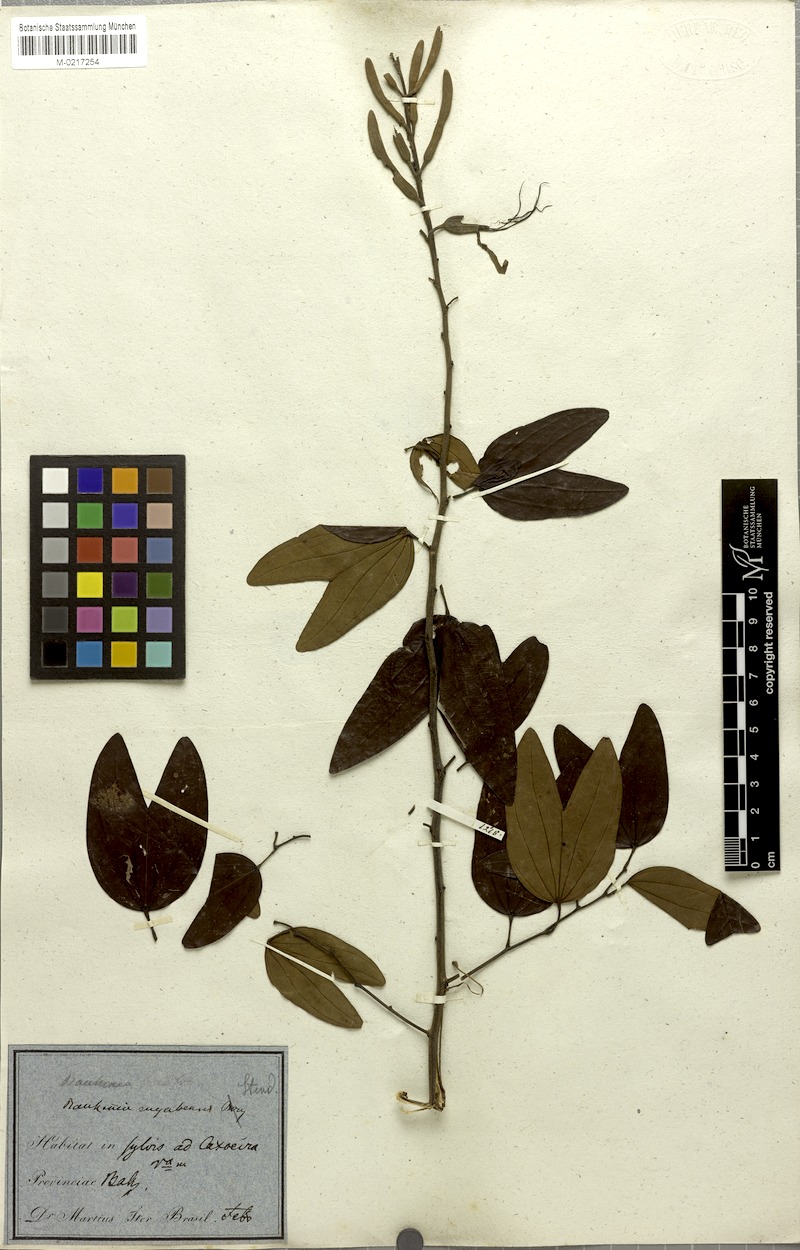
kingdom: Plantae
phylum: Tracheophyta
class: Magnoliopsida
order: Fabales
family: Fabaceae
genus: Bauhinia
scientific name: Bauhinia ungulata
